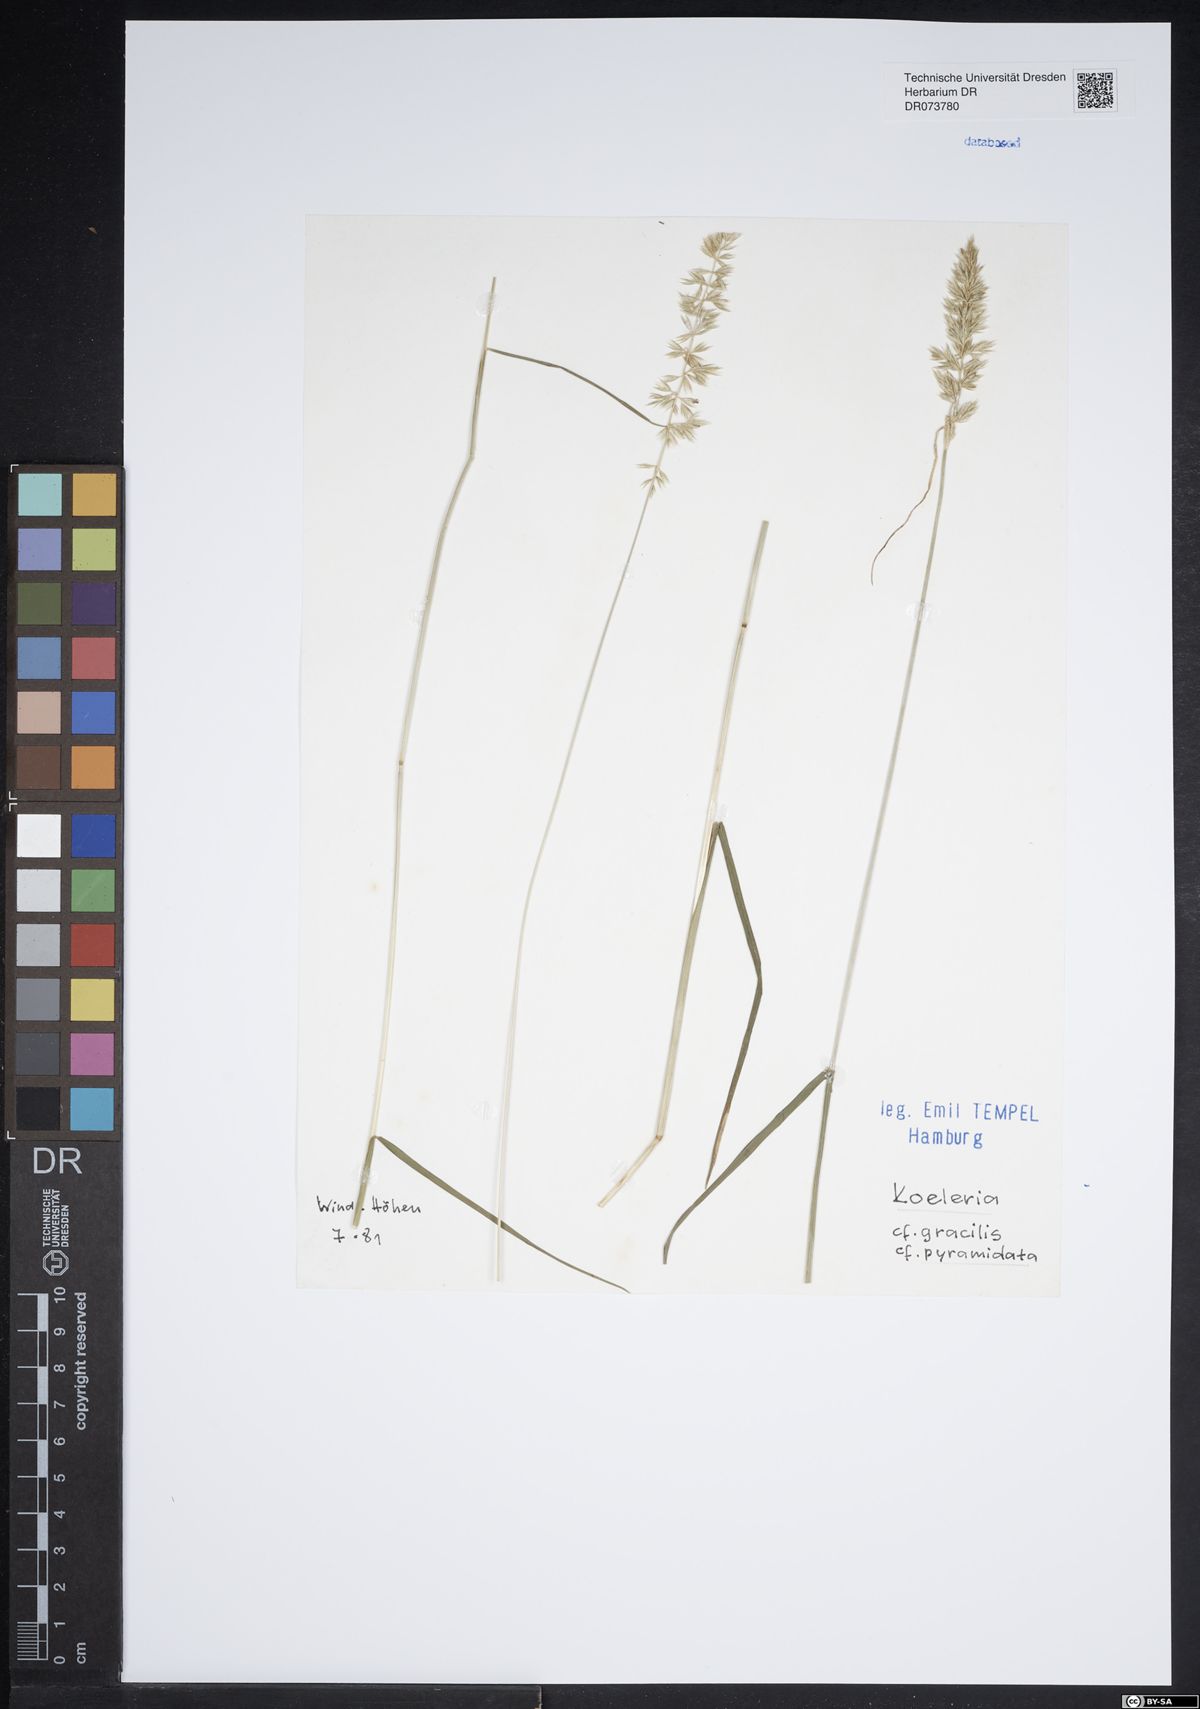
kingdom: Plantae
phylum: Tracheophyta
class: Liliopsida
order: Poales
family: Poaceae
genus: Koeleria
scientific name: Koeleria pyramidata
